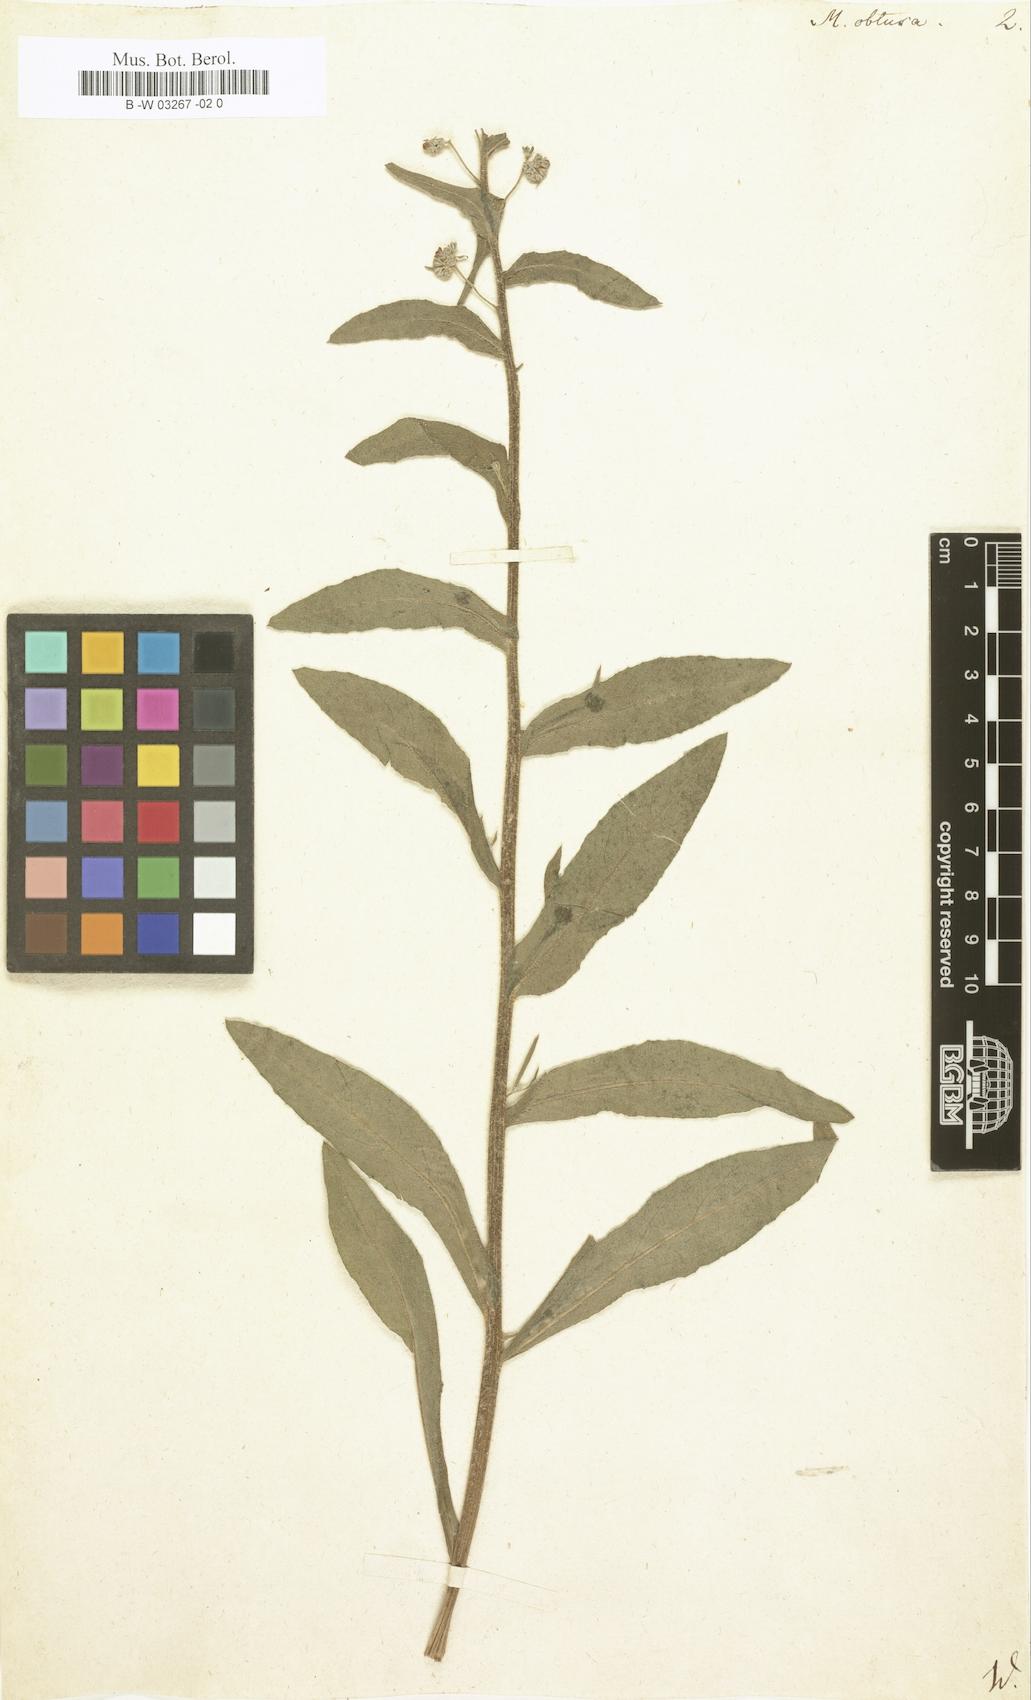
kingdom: Plantae
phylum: Tracheophyta
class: Magnoliopsida
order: Boraginales
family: Boraginaceae
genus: Cynoglottis
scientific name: Cynoglottis barrelieri
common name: False alkanet
